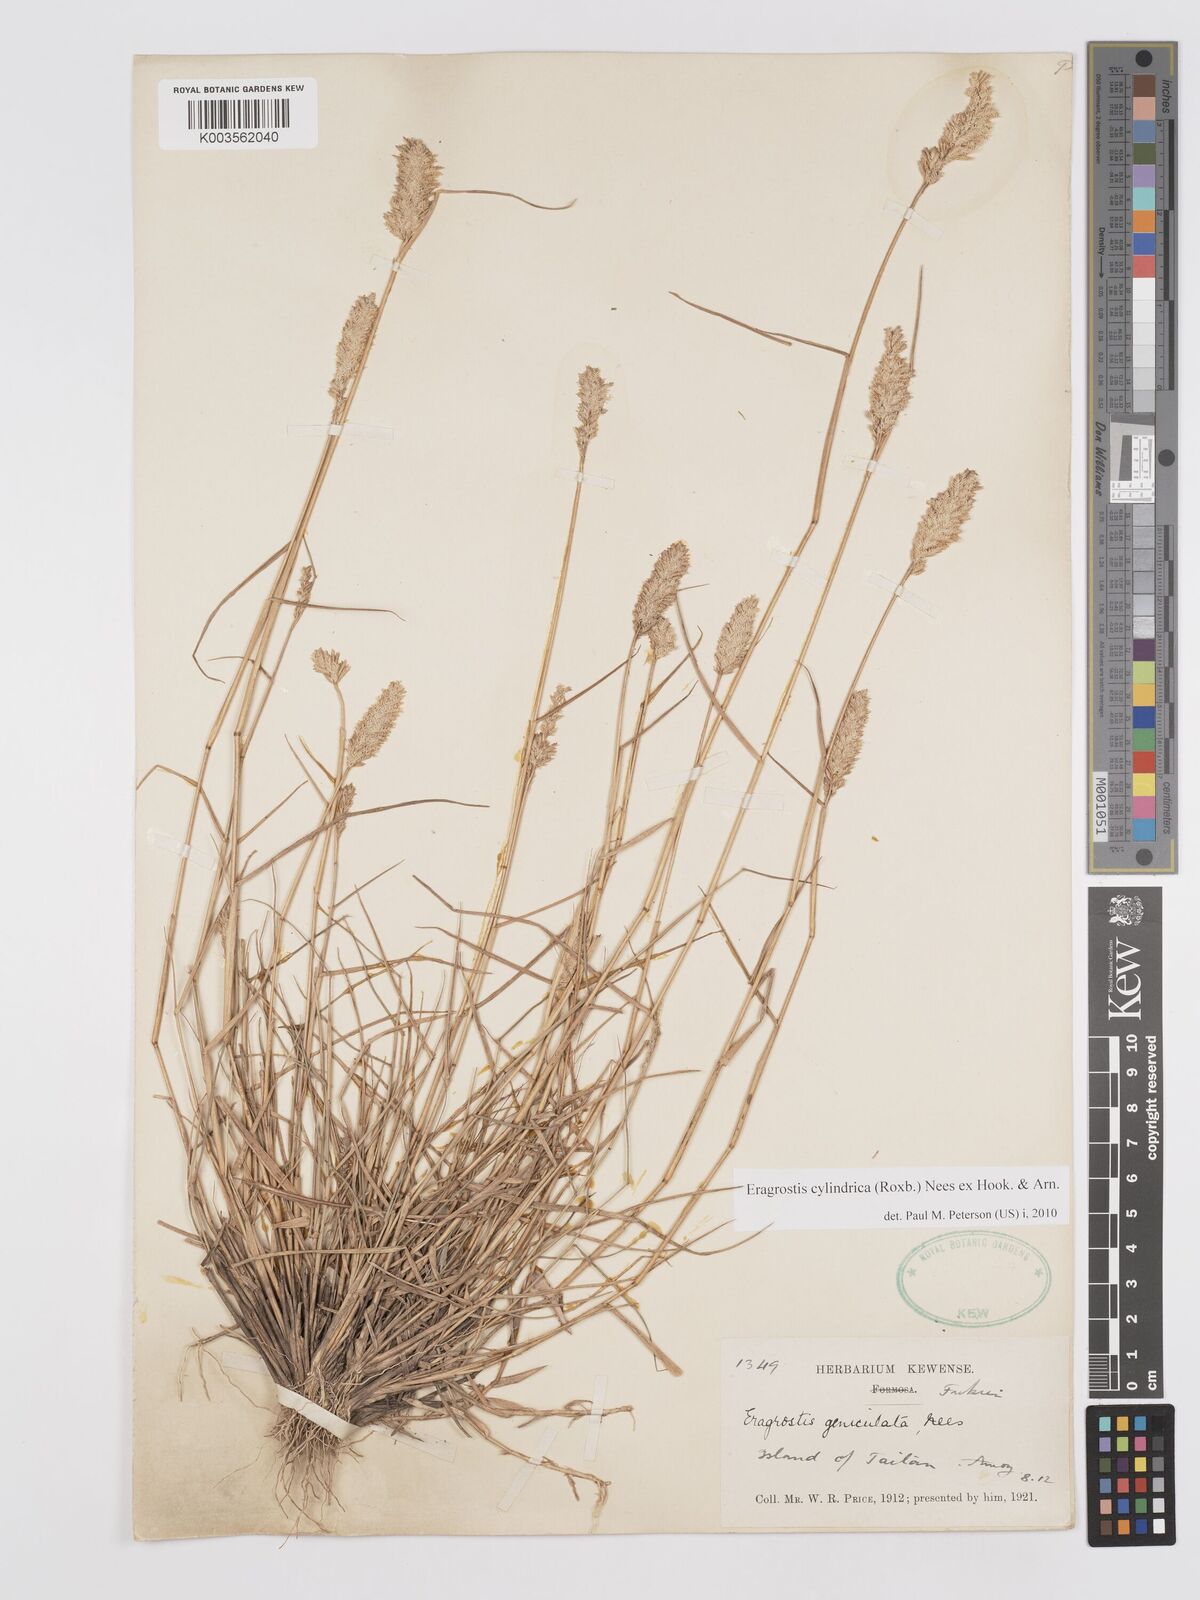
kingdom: Plantae
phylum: Tracheophyta
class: Liliopsida
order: Poales
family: Poaceae
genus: Eragrostis
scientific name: Eragrostis cylindrica
